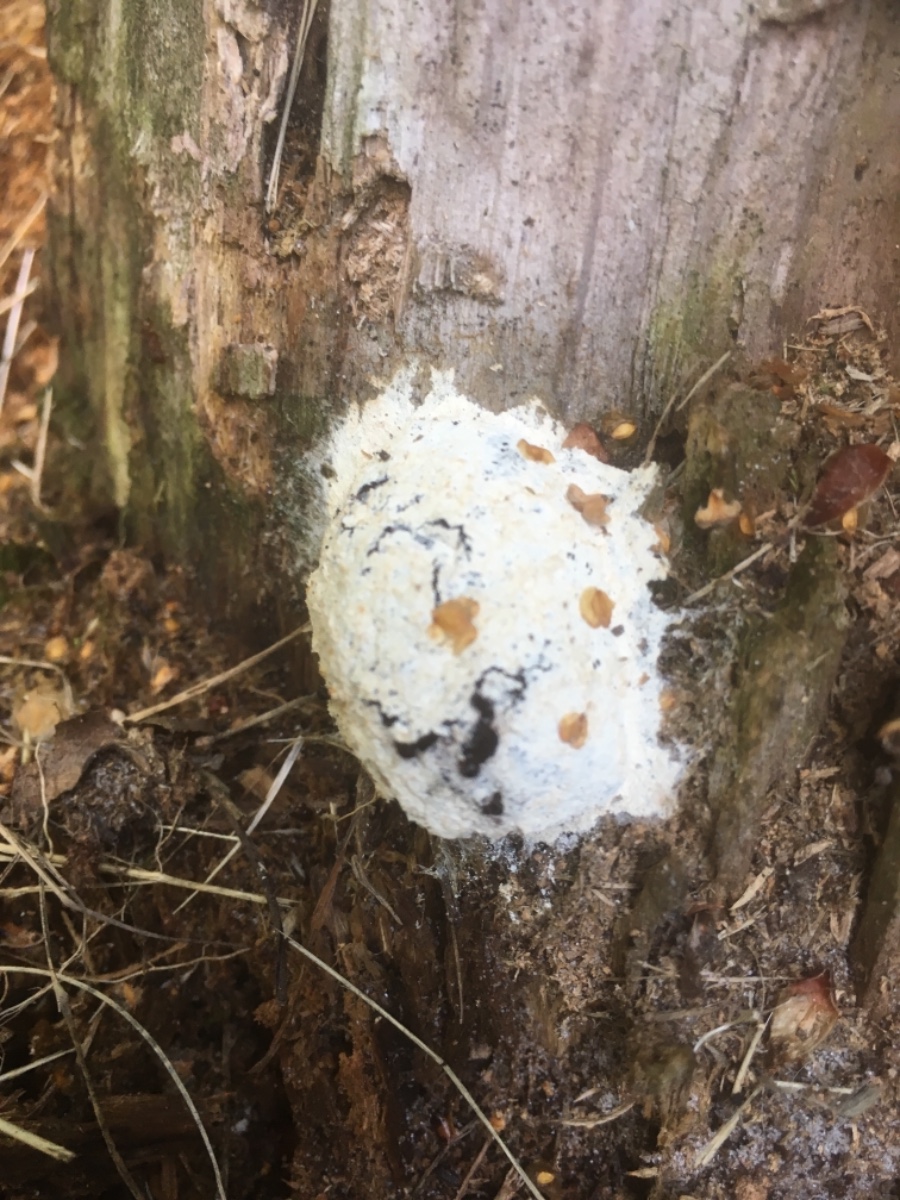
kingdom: Protozoa
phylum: Mycetozoa
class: Myxomycetes
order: Cribrariales
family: Tubiferaceae
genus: Reticularia
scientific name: Reticularia lycoperdon
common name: skinnende støvpude
